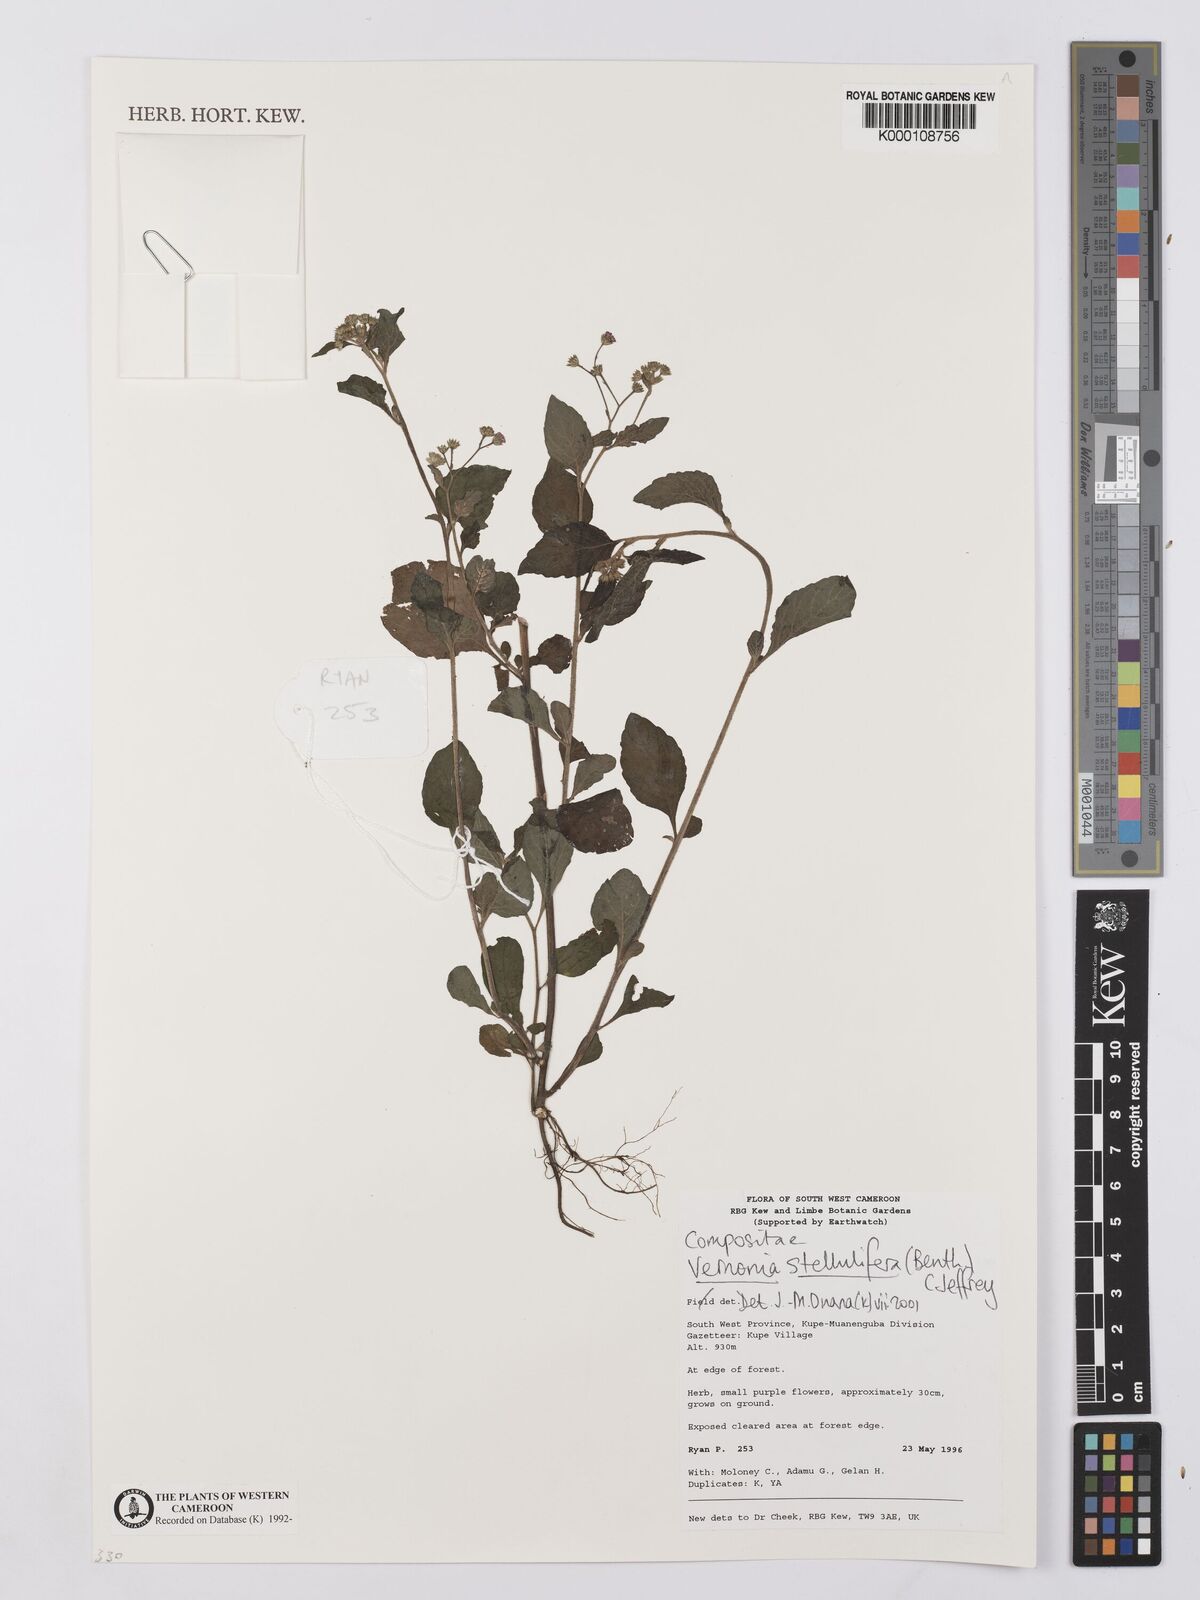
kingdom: Plantae
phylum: Tracheophyta
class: Magnoliopsida
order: Asterales
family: Asteraceae
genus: Cyanthillium
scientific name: Cyanthillium stelluliferum
